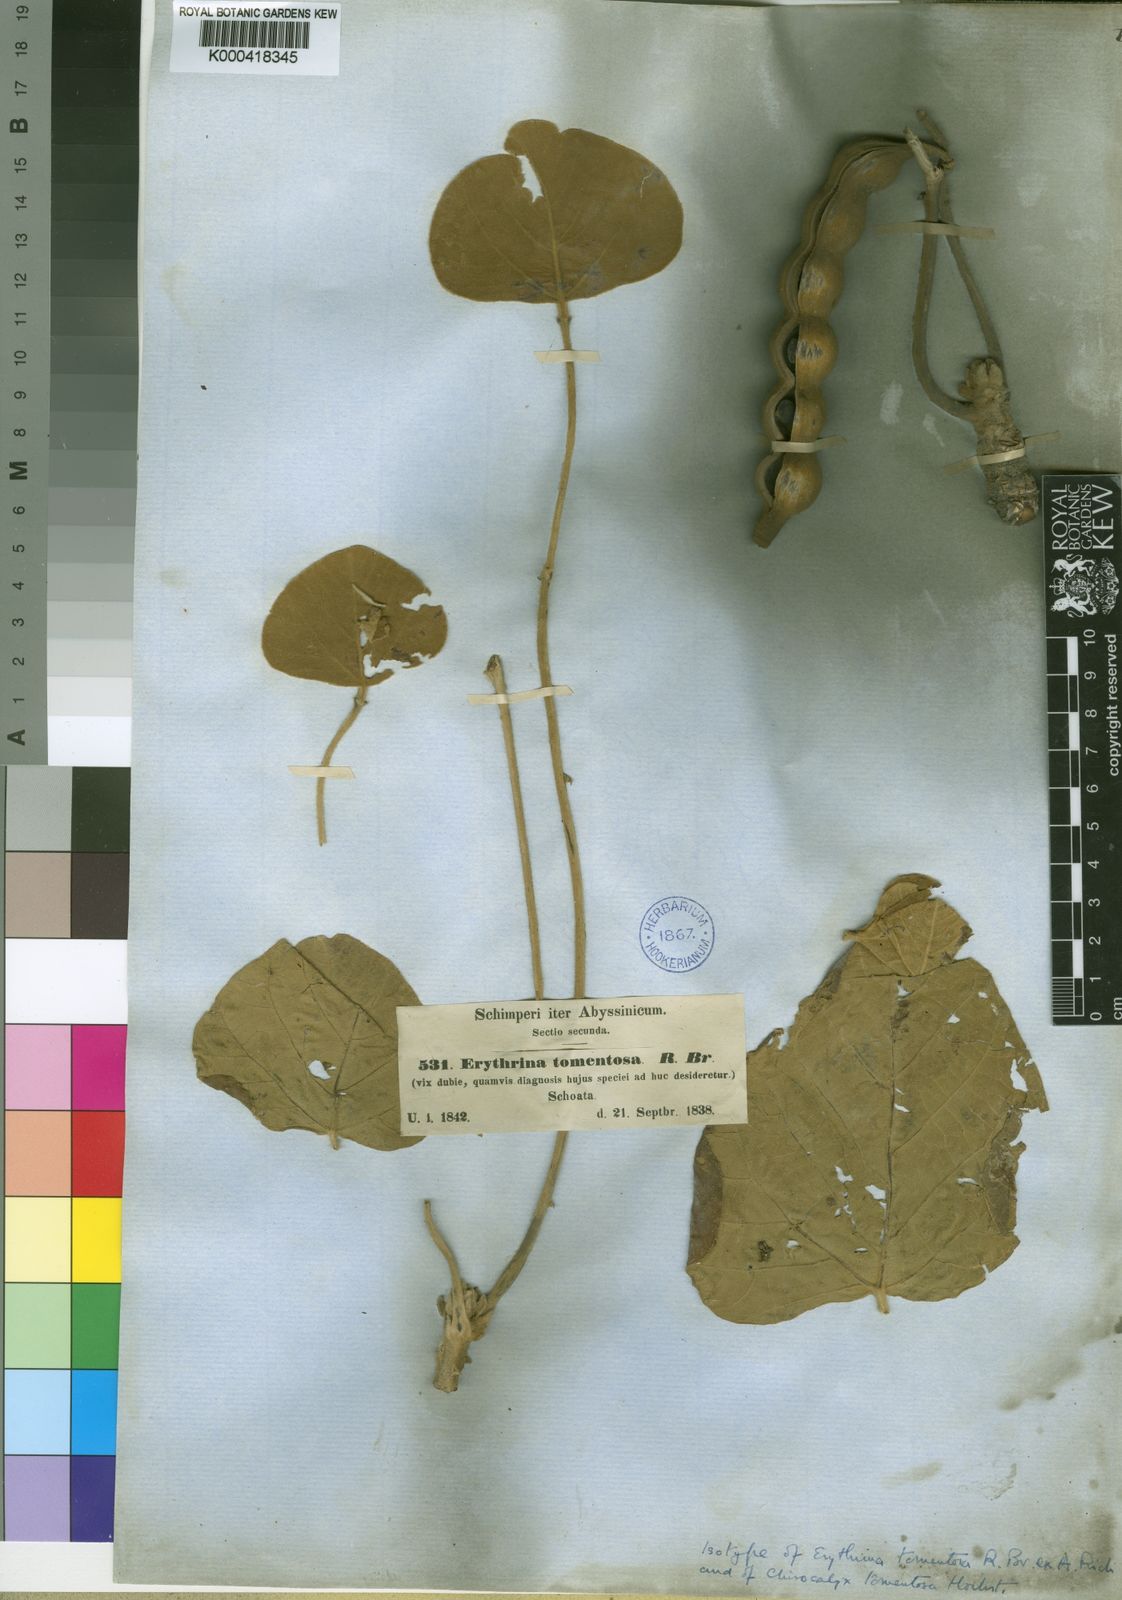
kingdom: Plantae
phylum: Tracheophyta
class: Magnoliopsida
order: Fabales
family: Fabaceae
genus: Erythrina
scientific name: Erythrina abyssinica
